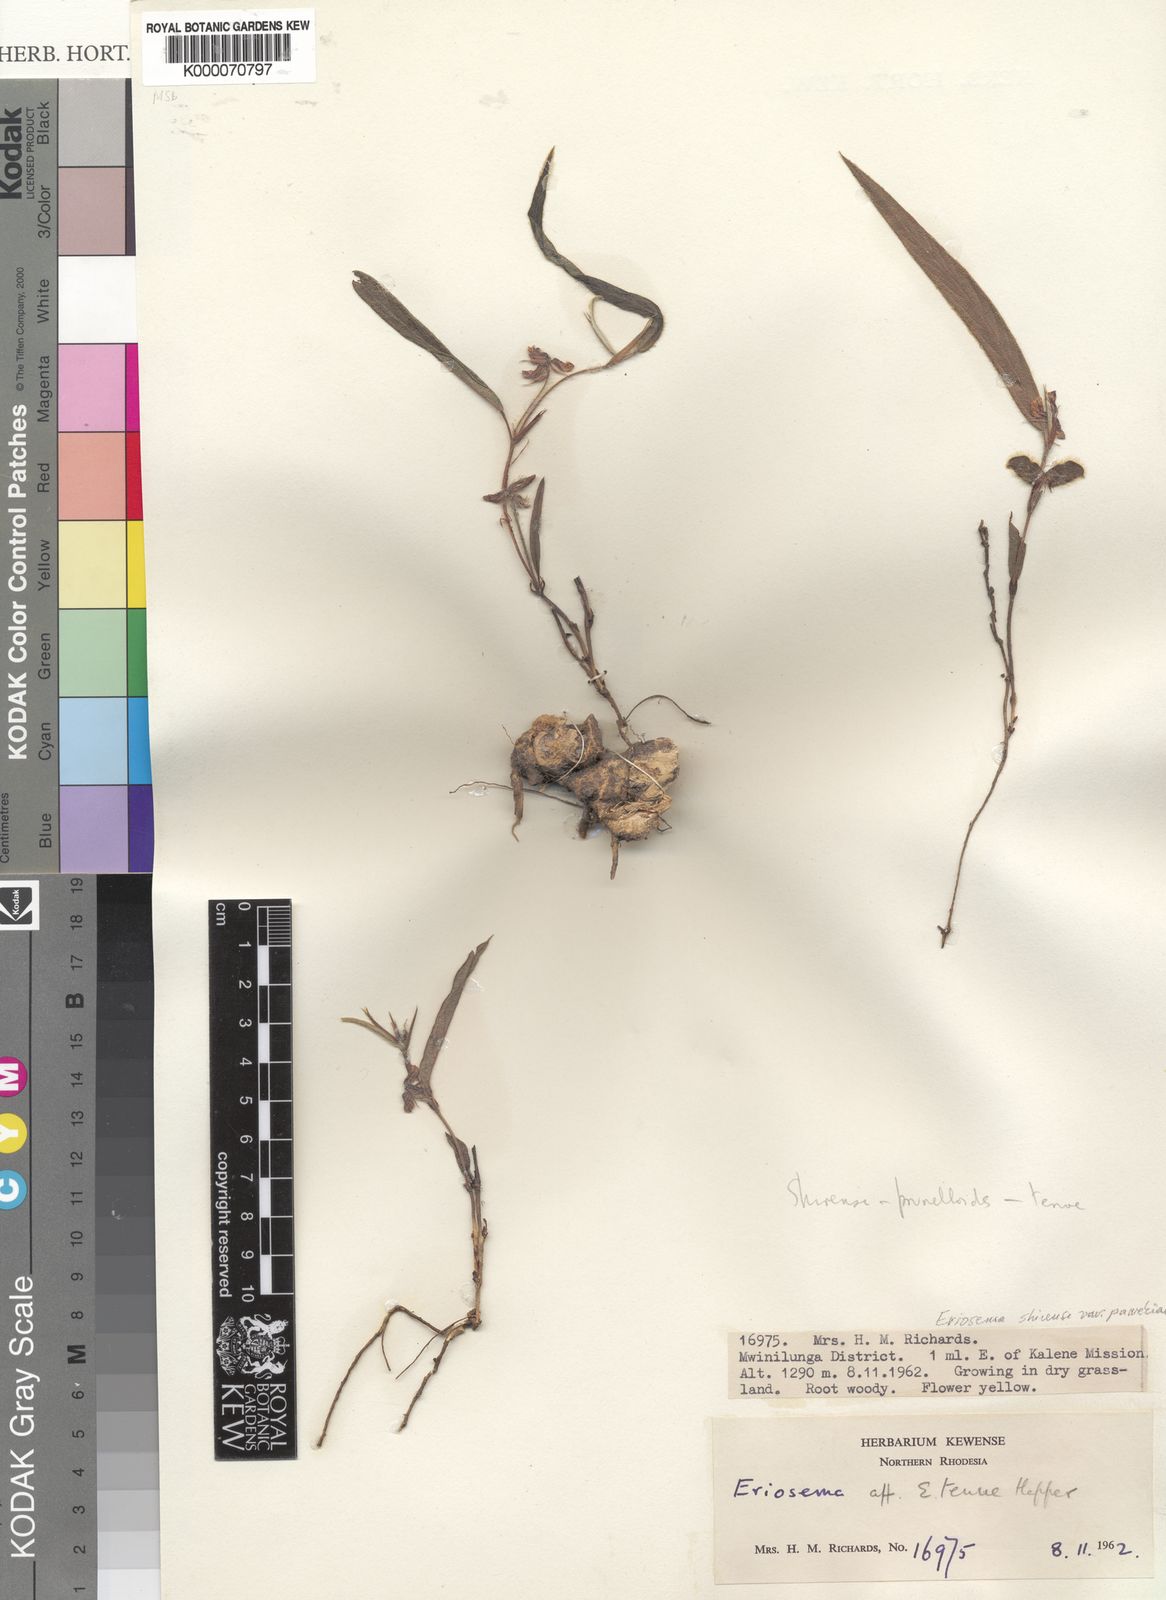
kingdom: Plantae
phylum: Tracheophyta
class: Magnoliopsida
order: Fabales
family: Fabaceae
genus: Eriosema
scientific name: Eriosema shirense
